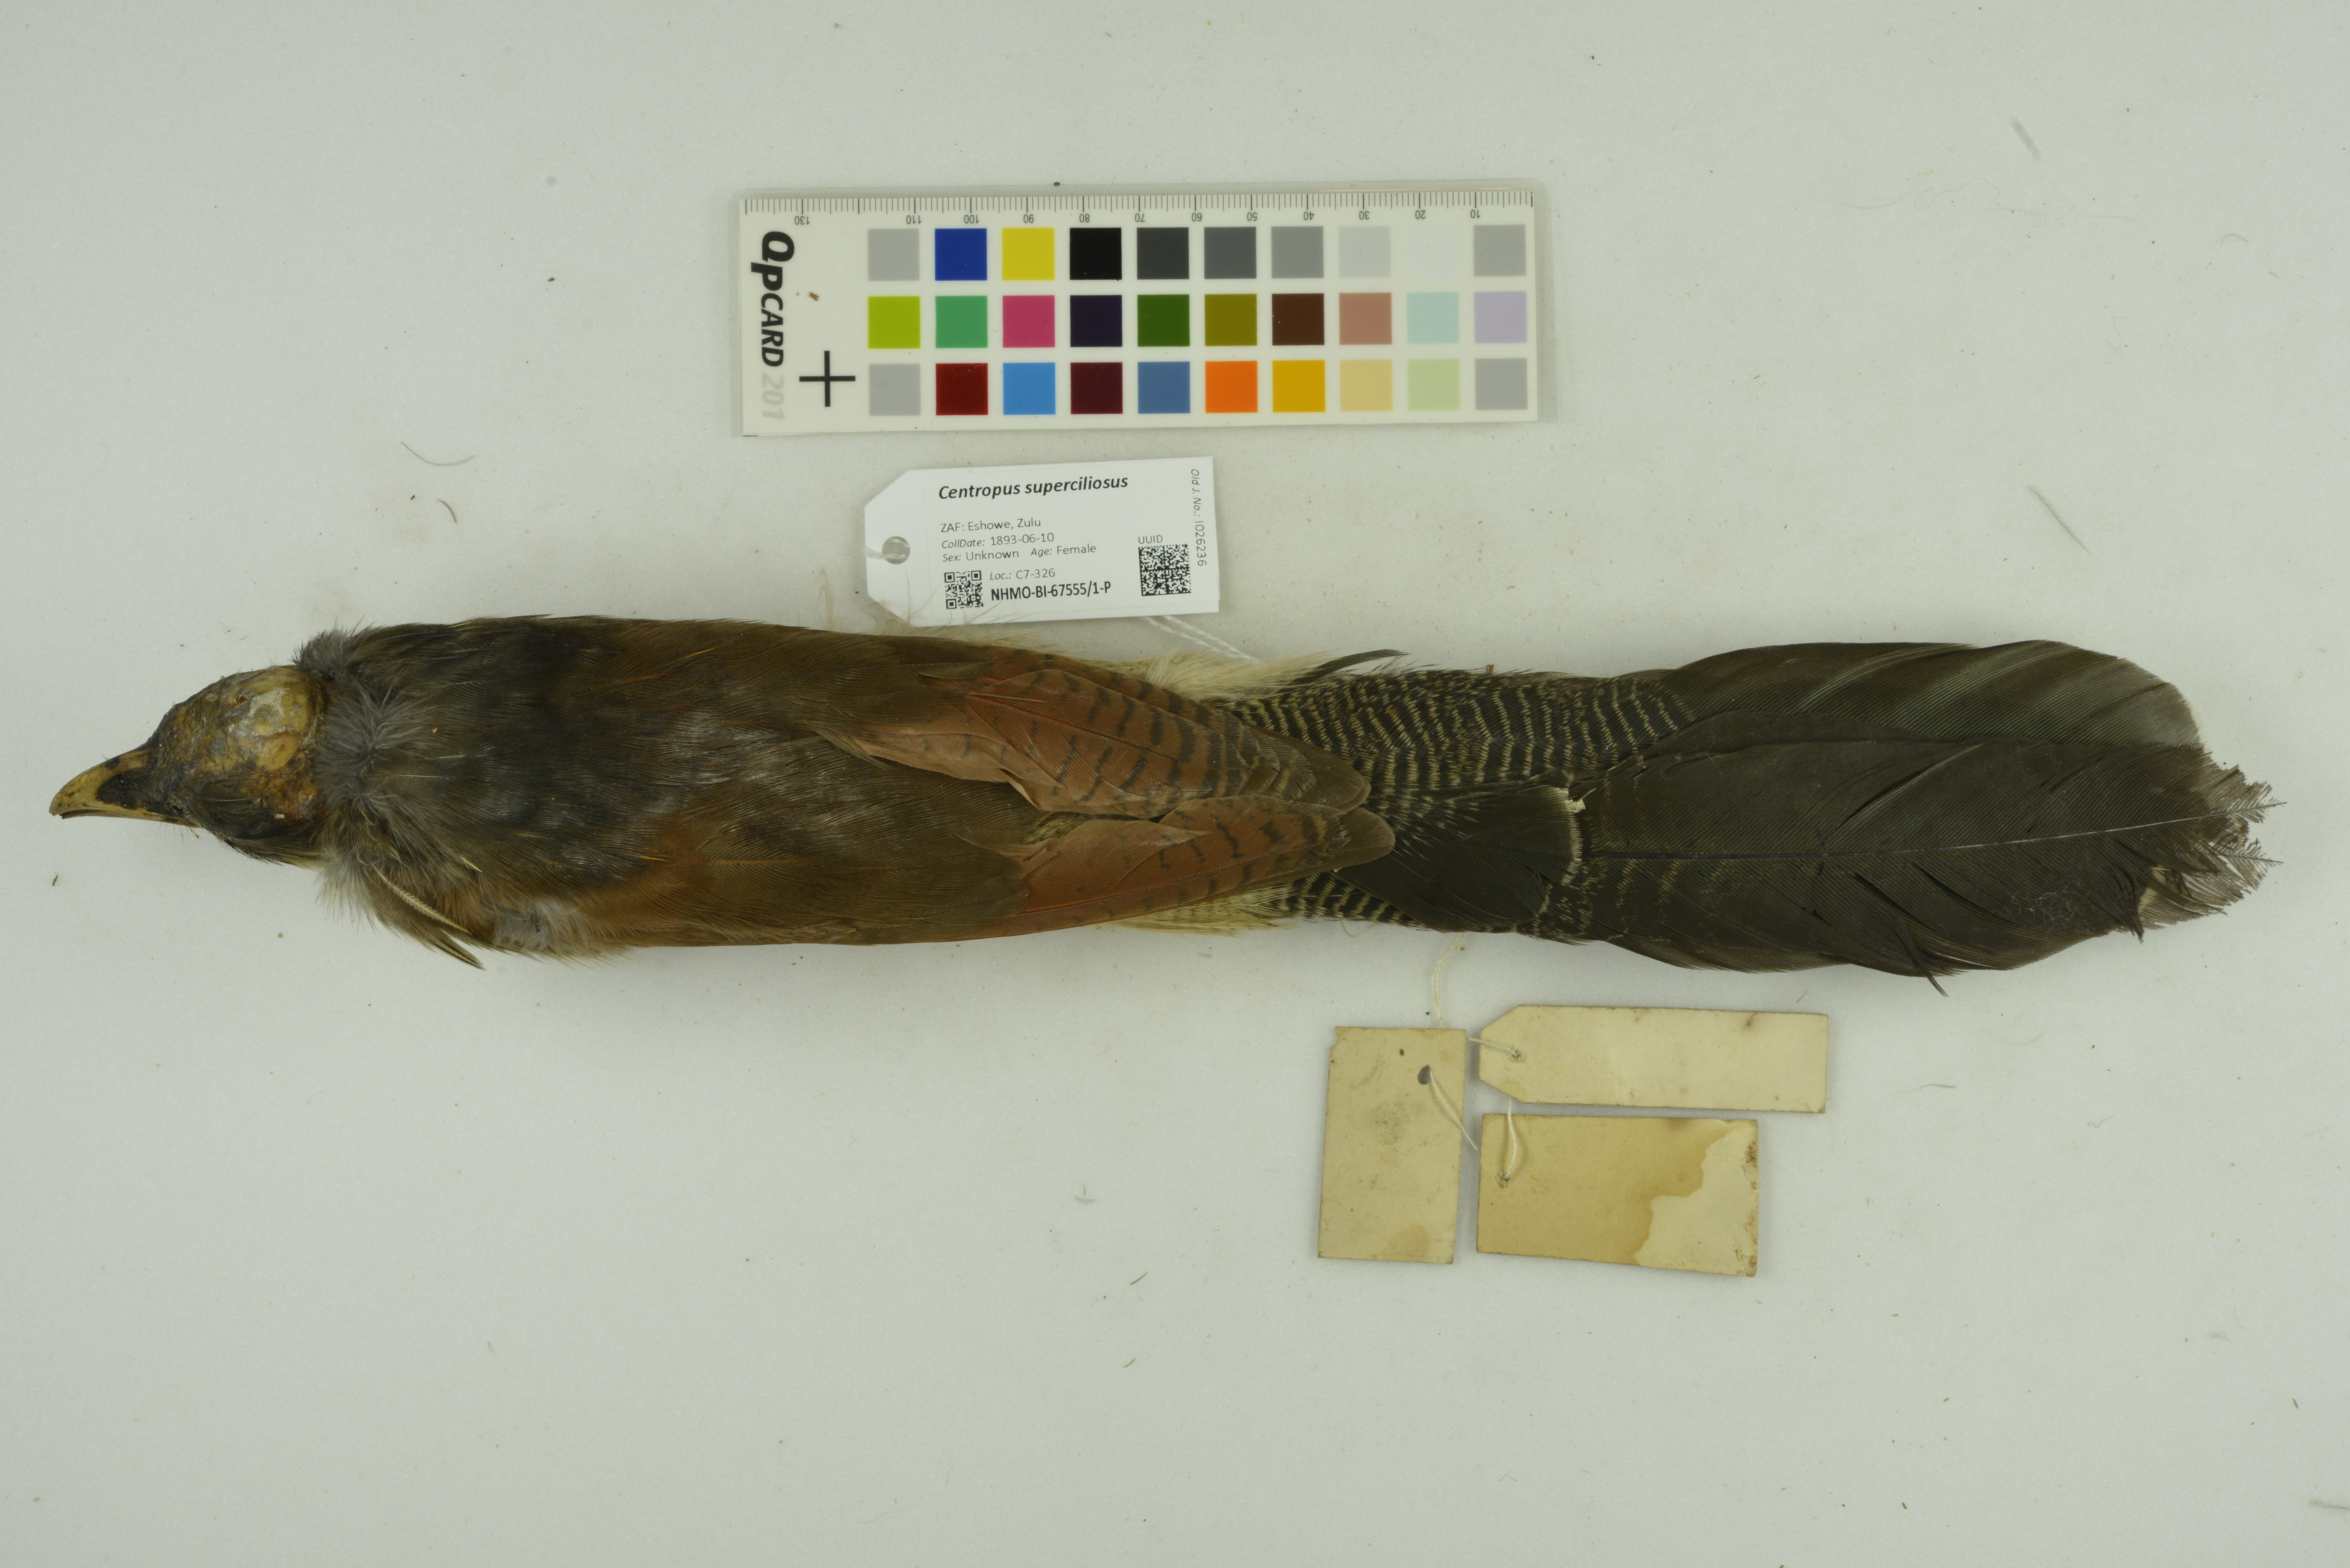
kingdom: Animalia
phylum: Chordata
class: Aves
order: Cuculiformes
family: Cuculidae
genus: Centropus
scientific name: Centropus superciliosus
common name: White-browed coucal
